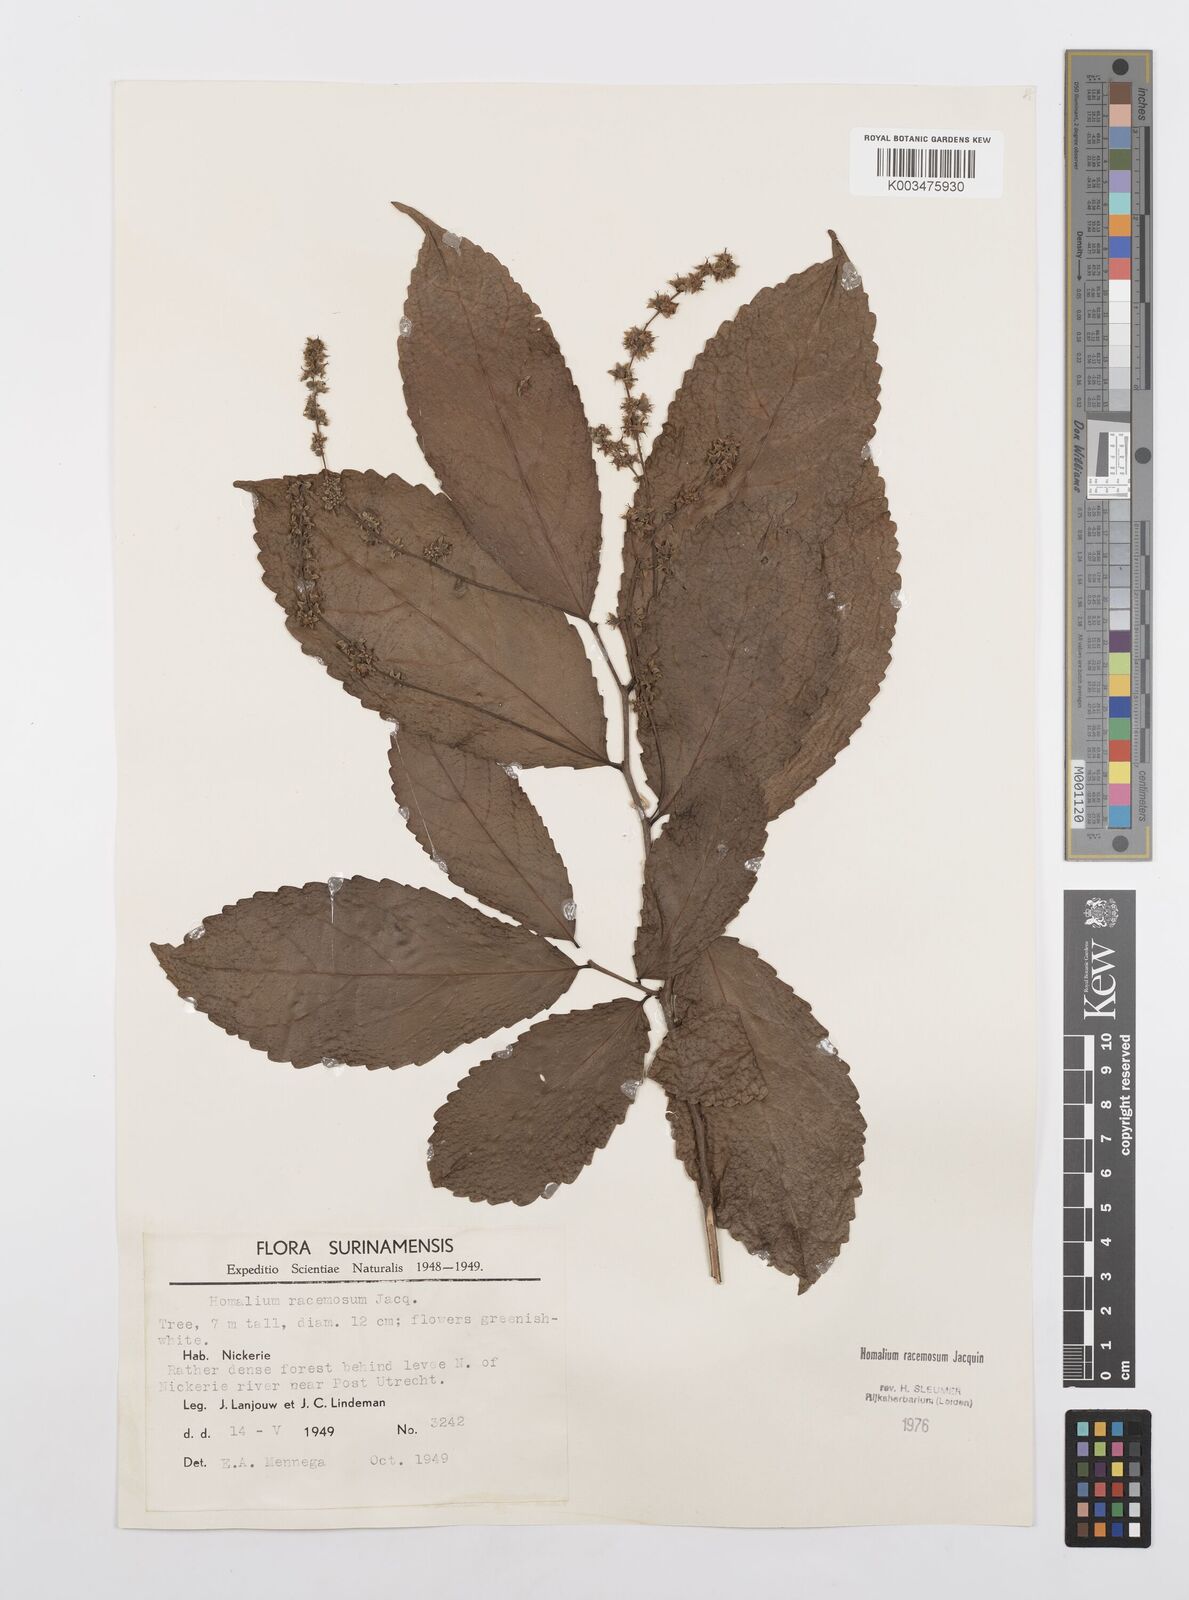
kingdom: Plantae
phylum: Tracheophyta
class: Magnoliopsida
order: Malpighiales
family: Salicaceae
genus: Homalium
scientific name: Homalium racemosum
